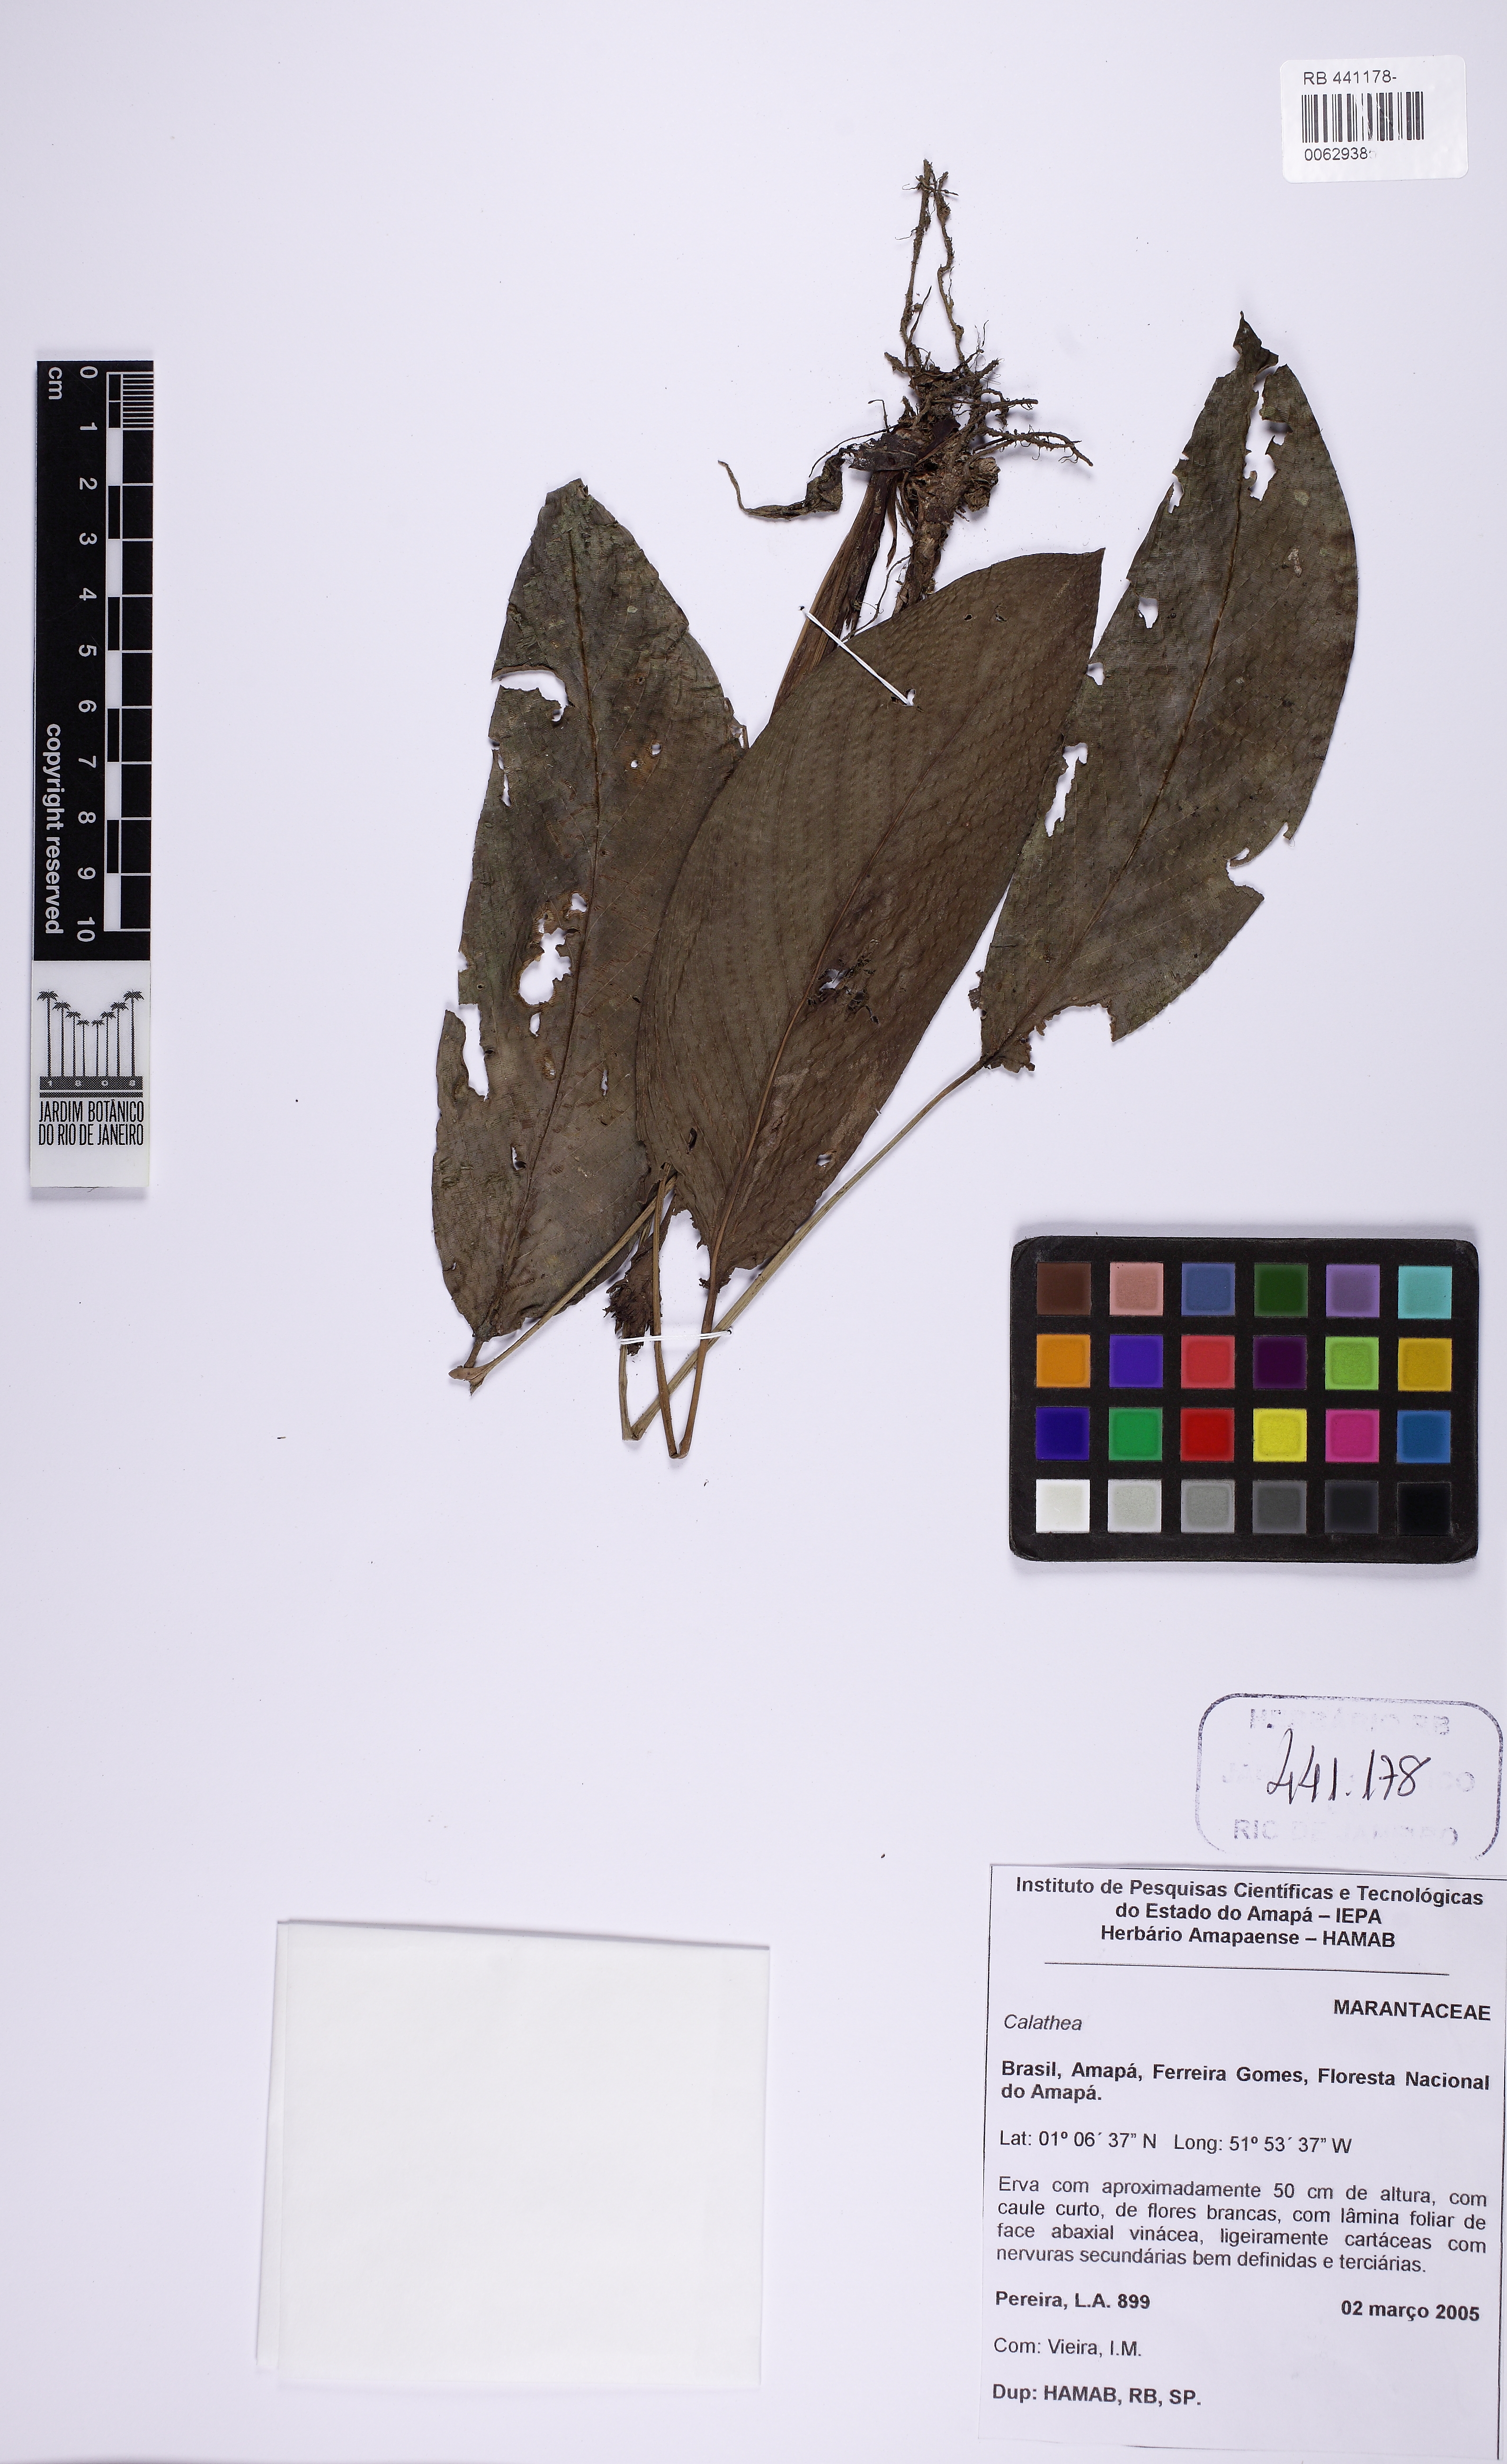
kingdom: Plantae
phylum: Tracheophyta
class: Liliopsida
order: Zingiberales
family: Marantaceae
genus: Calathea
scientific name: Calathea
